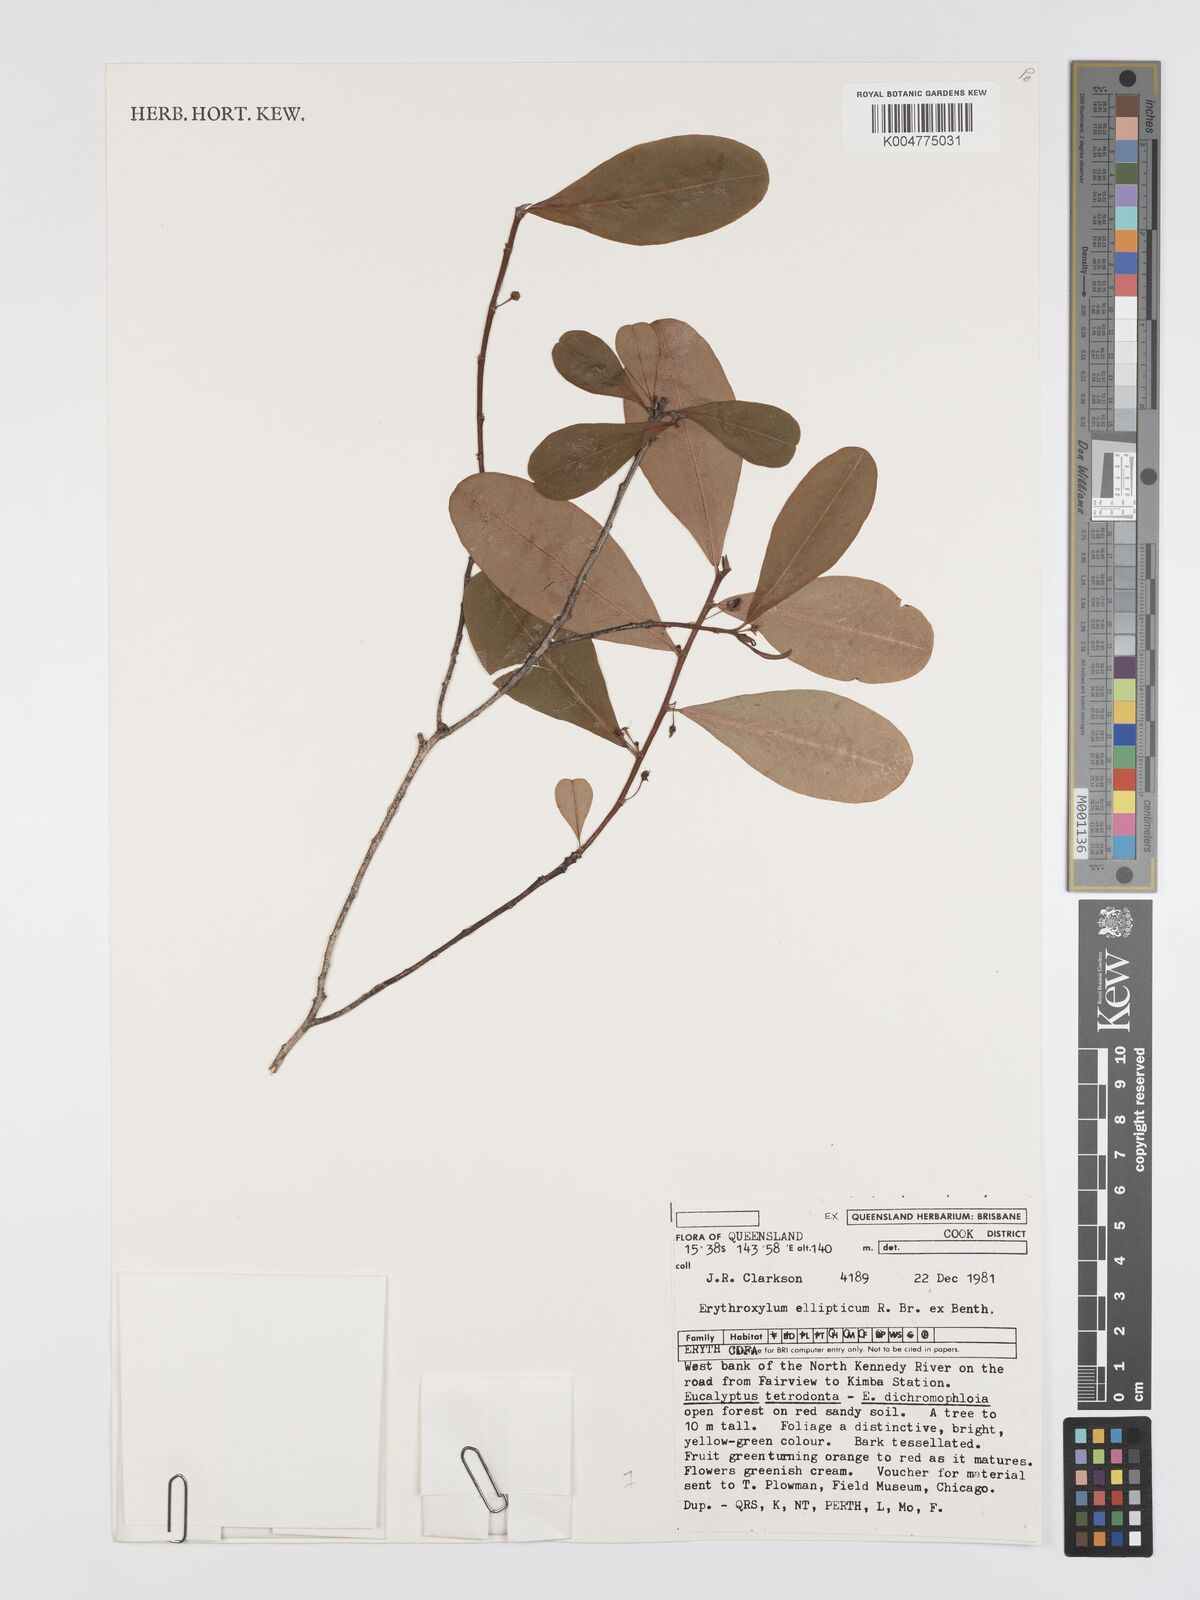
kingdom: Plantae
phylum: Tracheophyta
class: Magnoliopsida
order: Malpighiales
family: Erythroxylaceae
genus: Erythroxylum
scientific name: Erythroxylum
